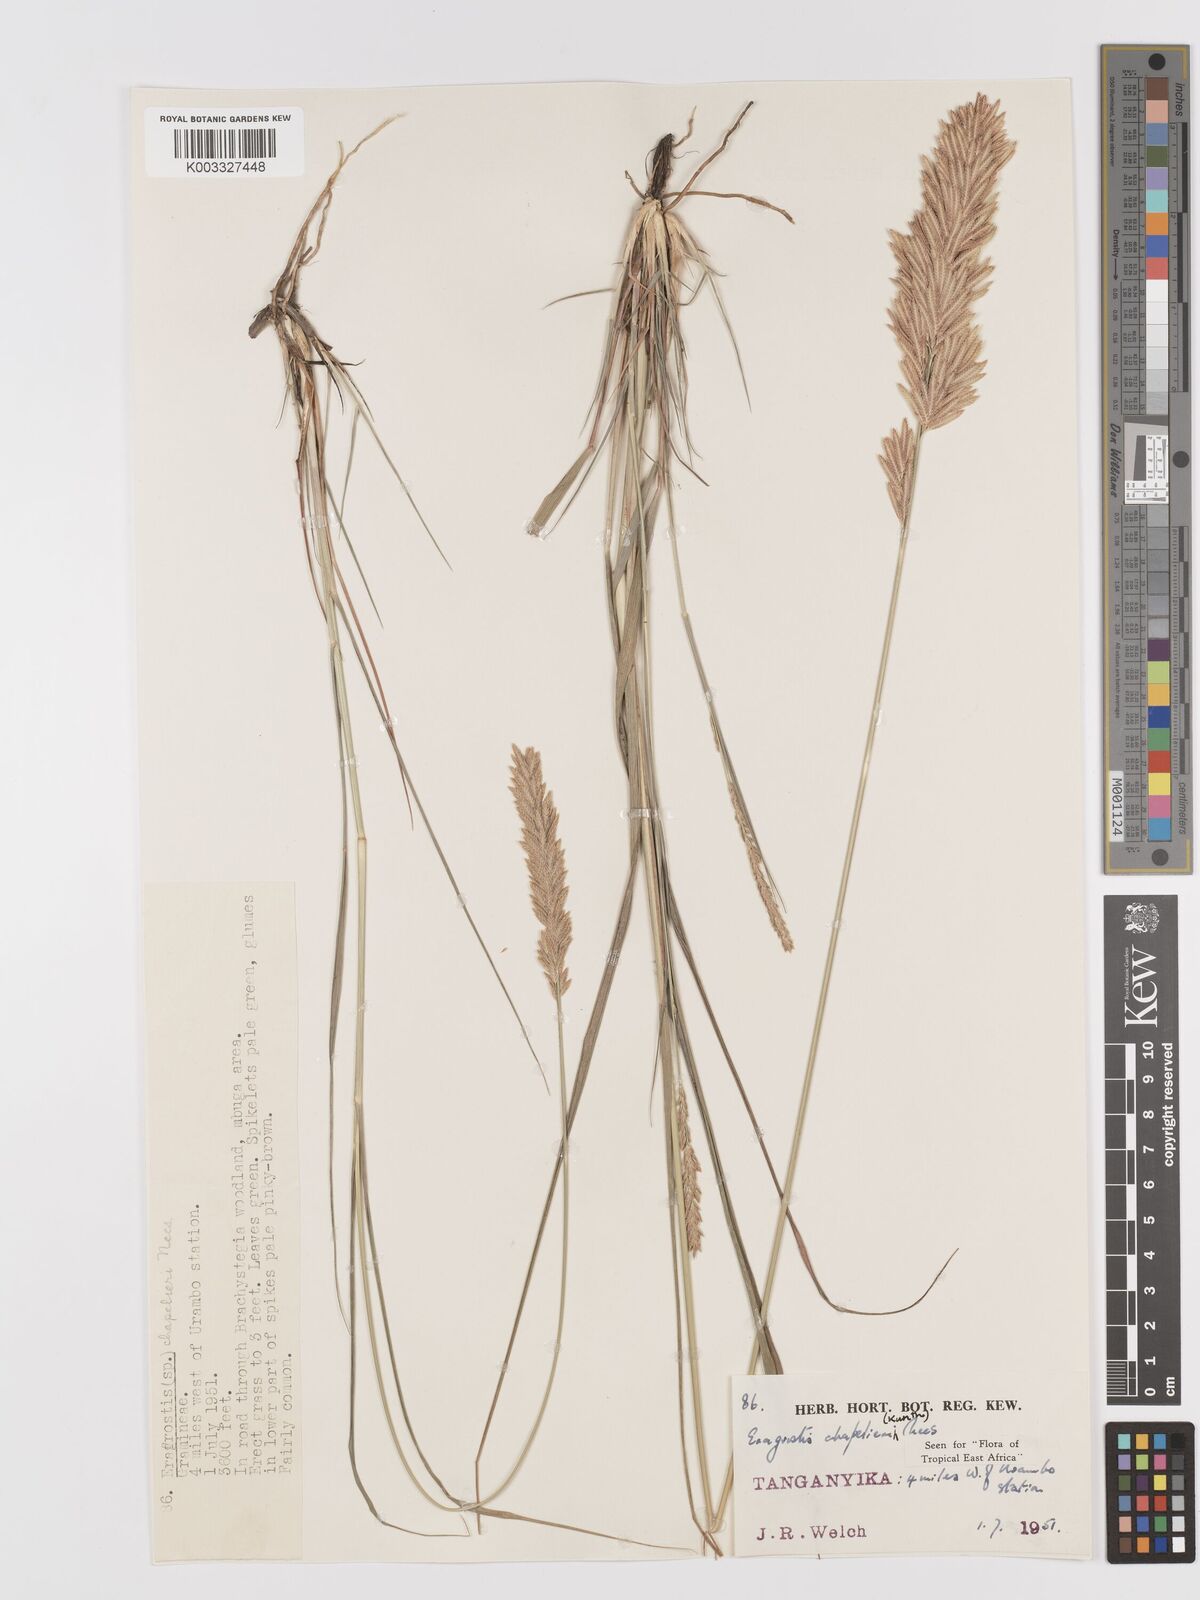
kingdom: Plantae
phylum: Tracheophyta
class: Liliopsida
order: Poales
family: Poaceae
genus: Eragrostis
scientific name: Eragrostis chapelieri
